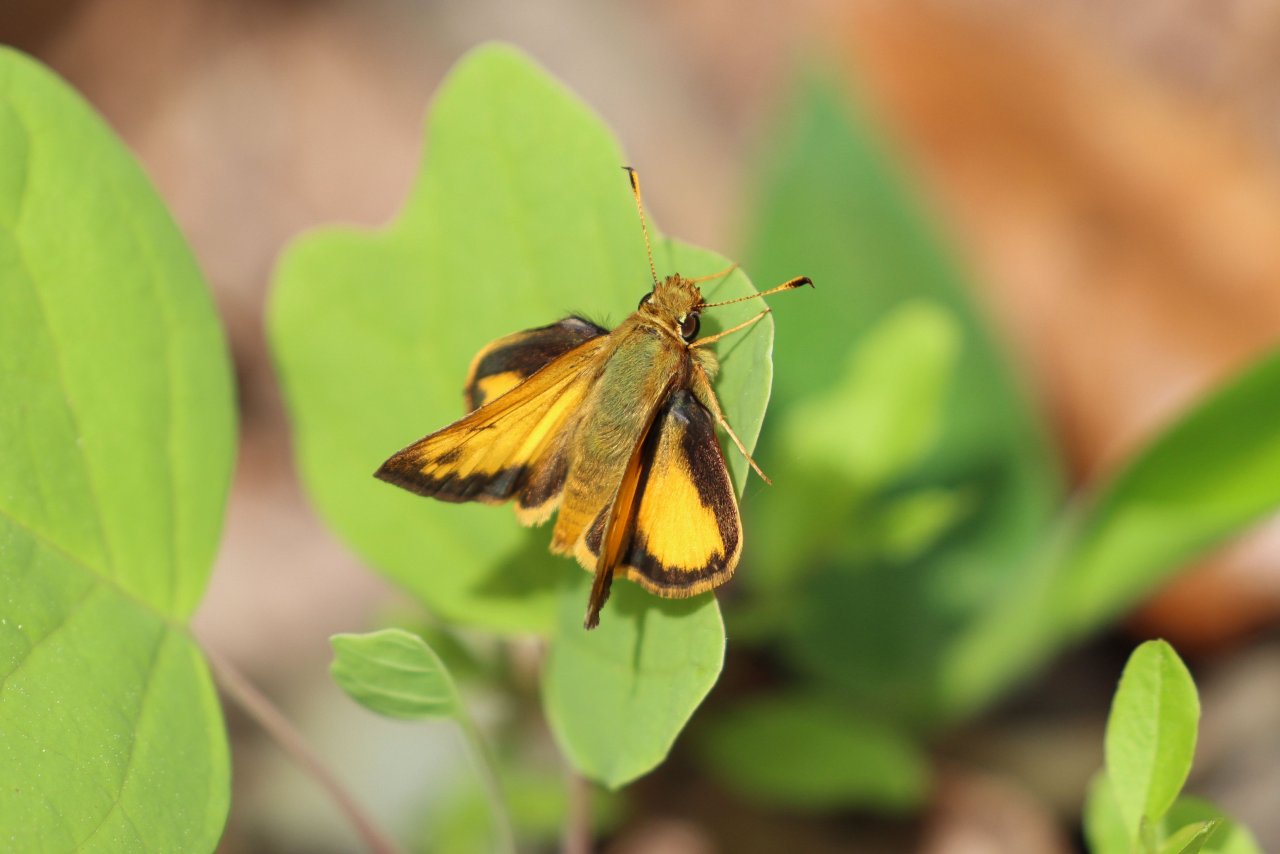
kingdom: Animalia
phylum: Arthropoda
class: Insecta
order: Lepidoptera
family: Hesperiidae
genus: Lon
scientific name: Lon zabulon
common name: Zabulon Skipper
